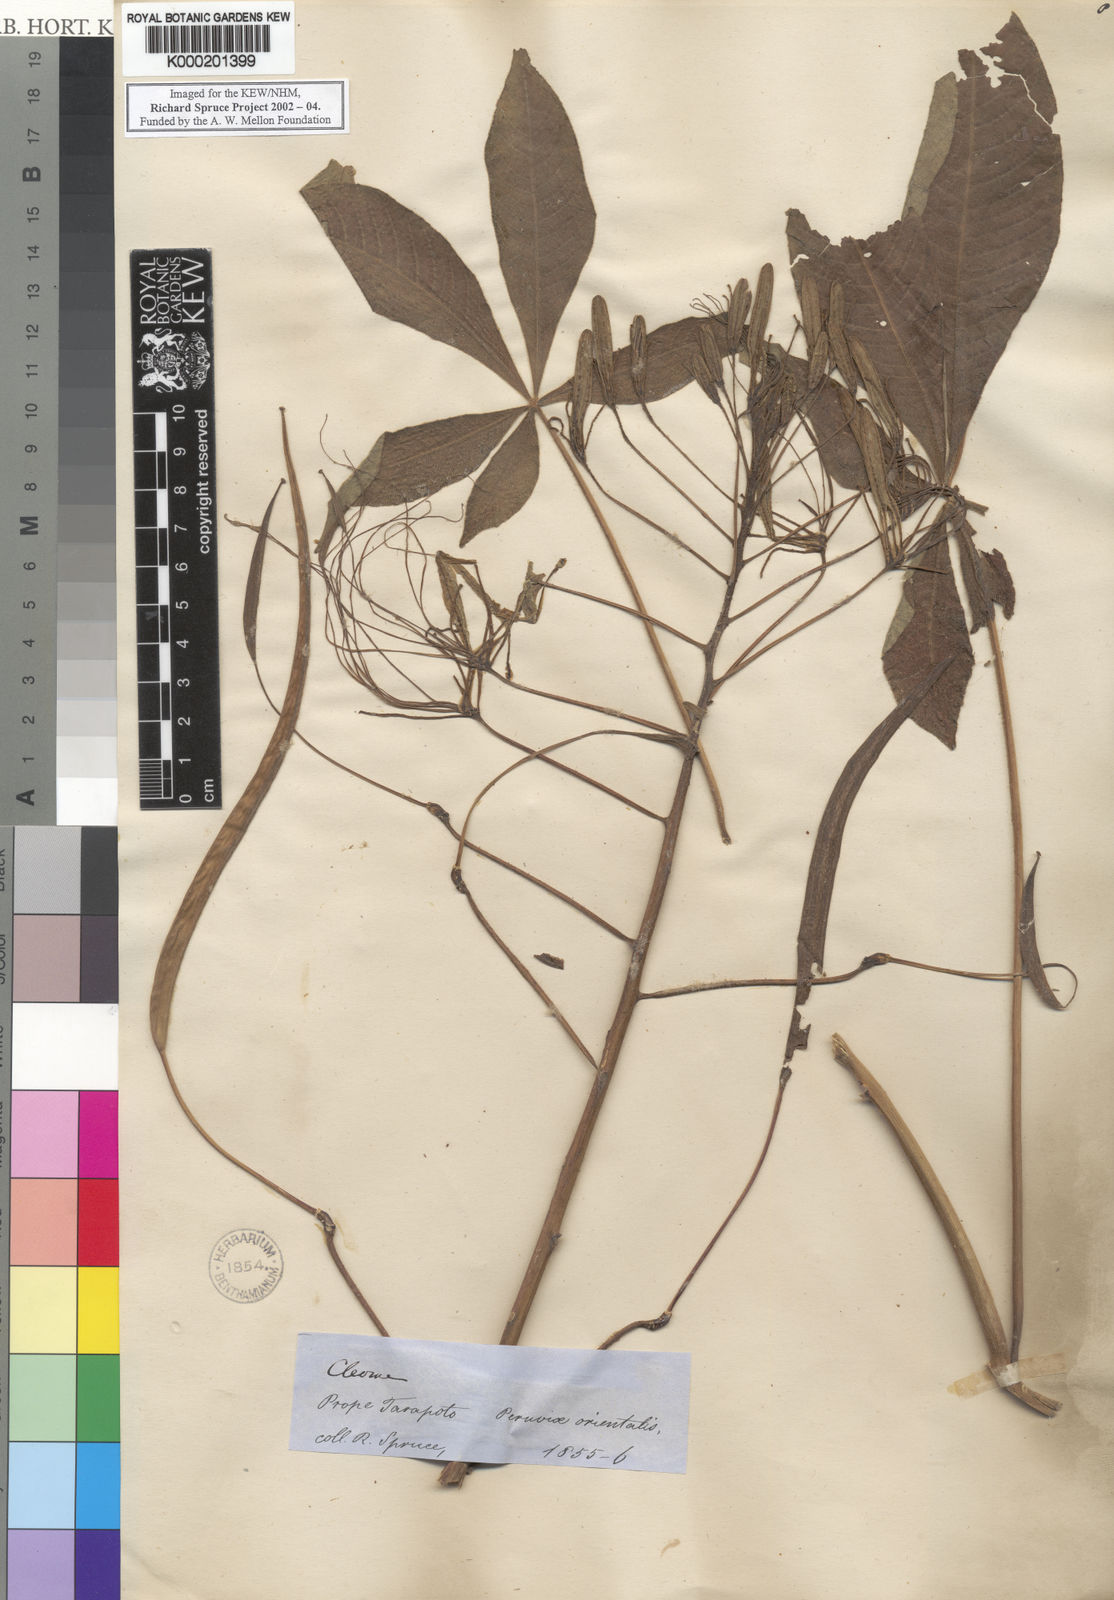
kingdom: Plantae
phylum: Tracheophyta
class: Magnoliopsida
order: Brassicales
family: Cleomaceae
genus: Melidiscus
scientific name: Melidiscus gigantea
